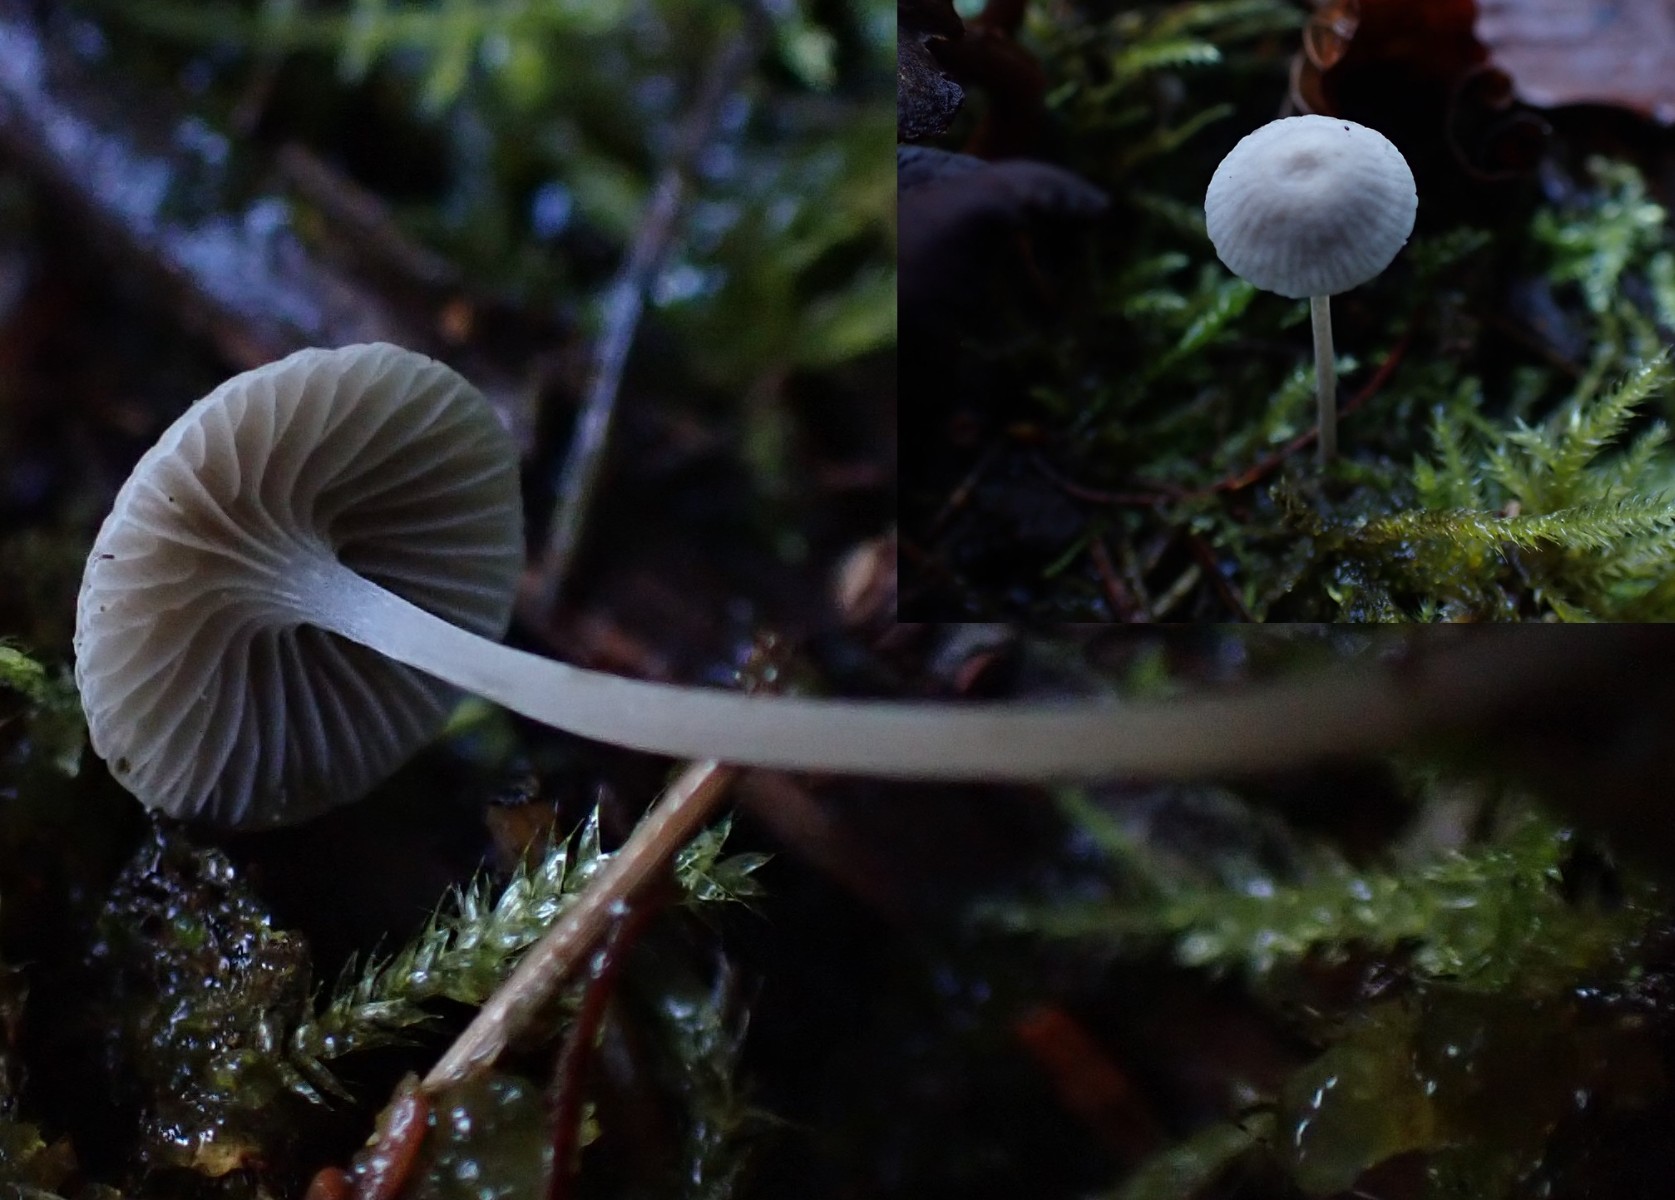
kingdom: Fungi
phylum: Basidiomycota
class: Agaricomycetes
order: Agaricales
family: Mycenaceae
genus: Mycena
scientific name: Mycena cinerella
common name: mel-huesvamp
